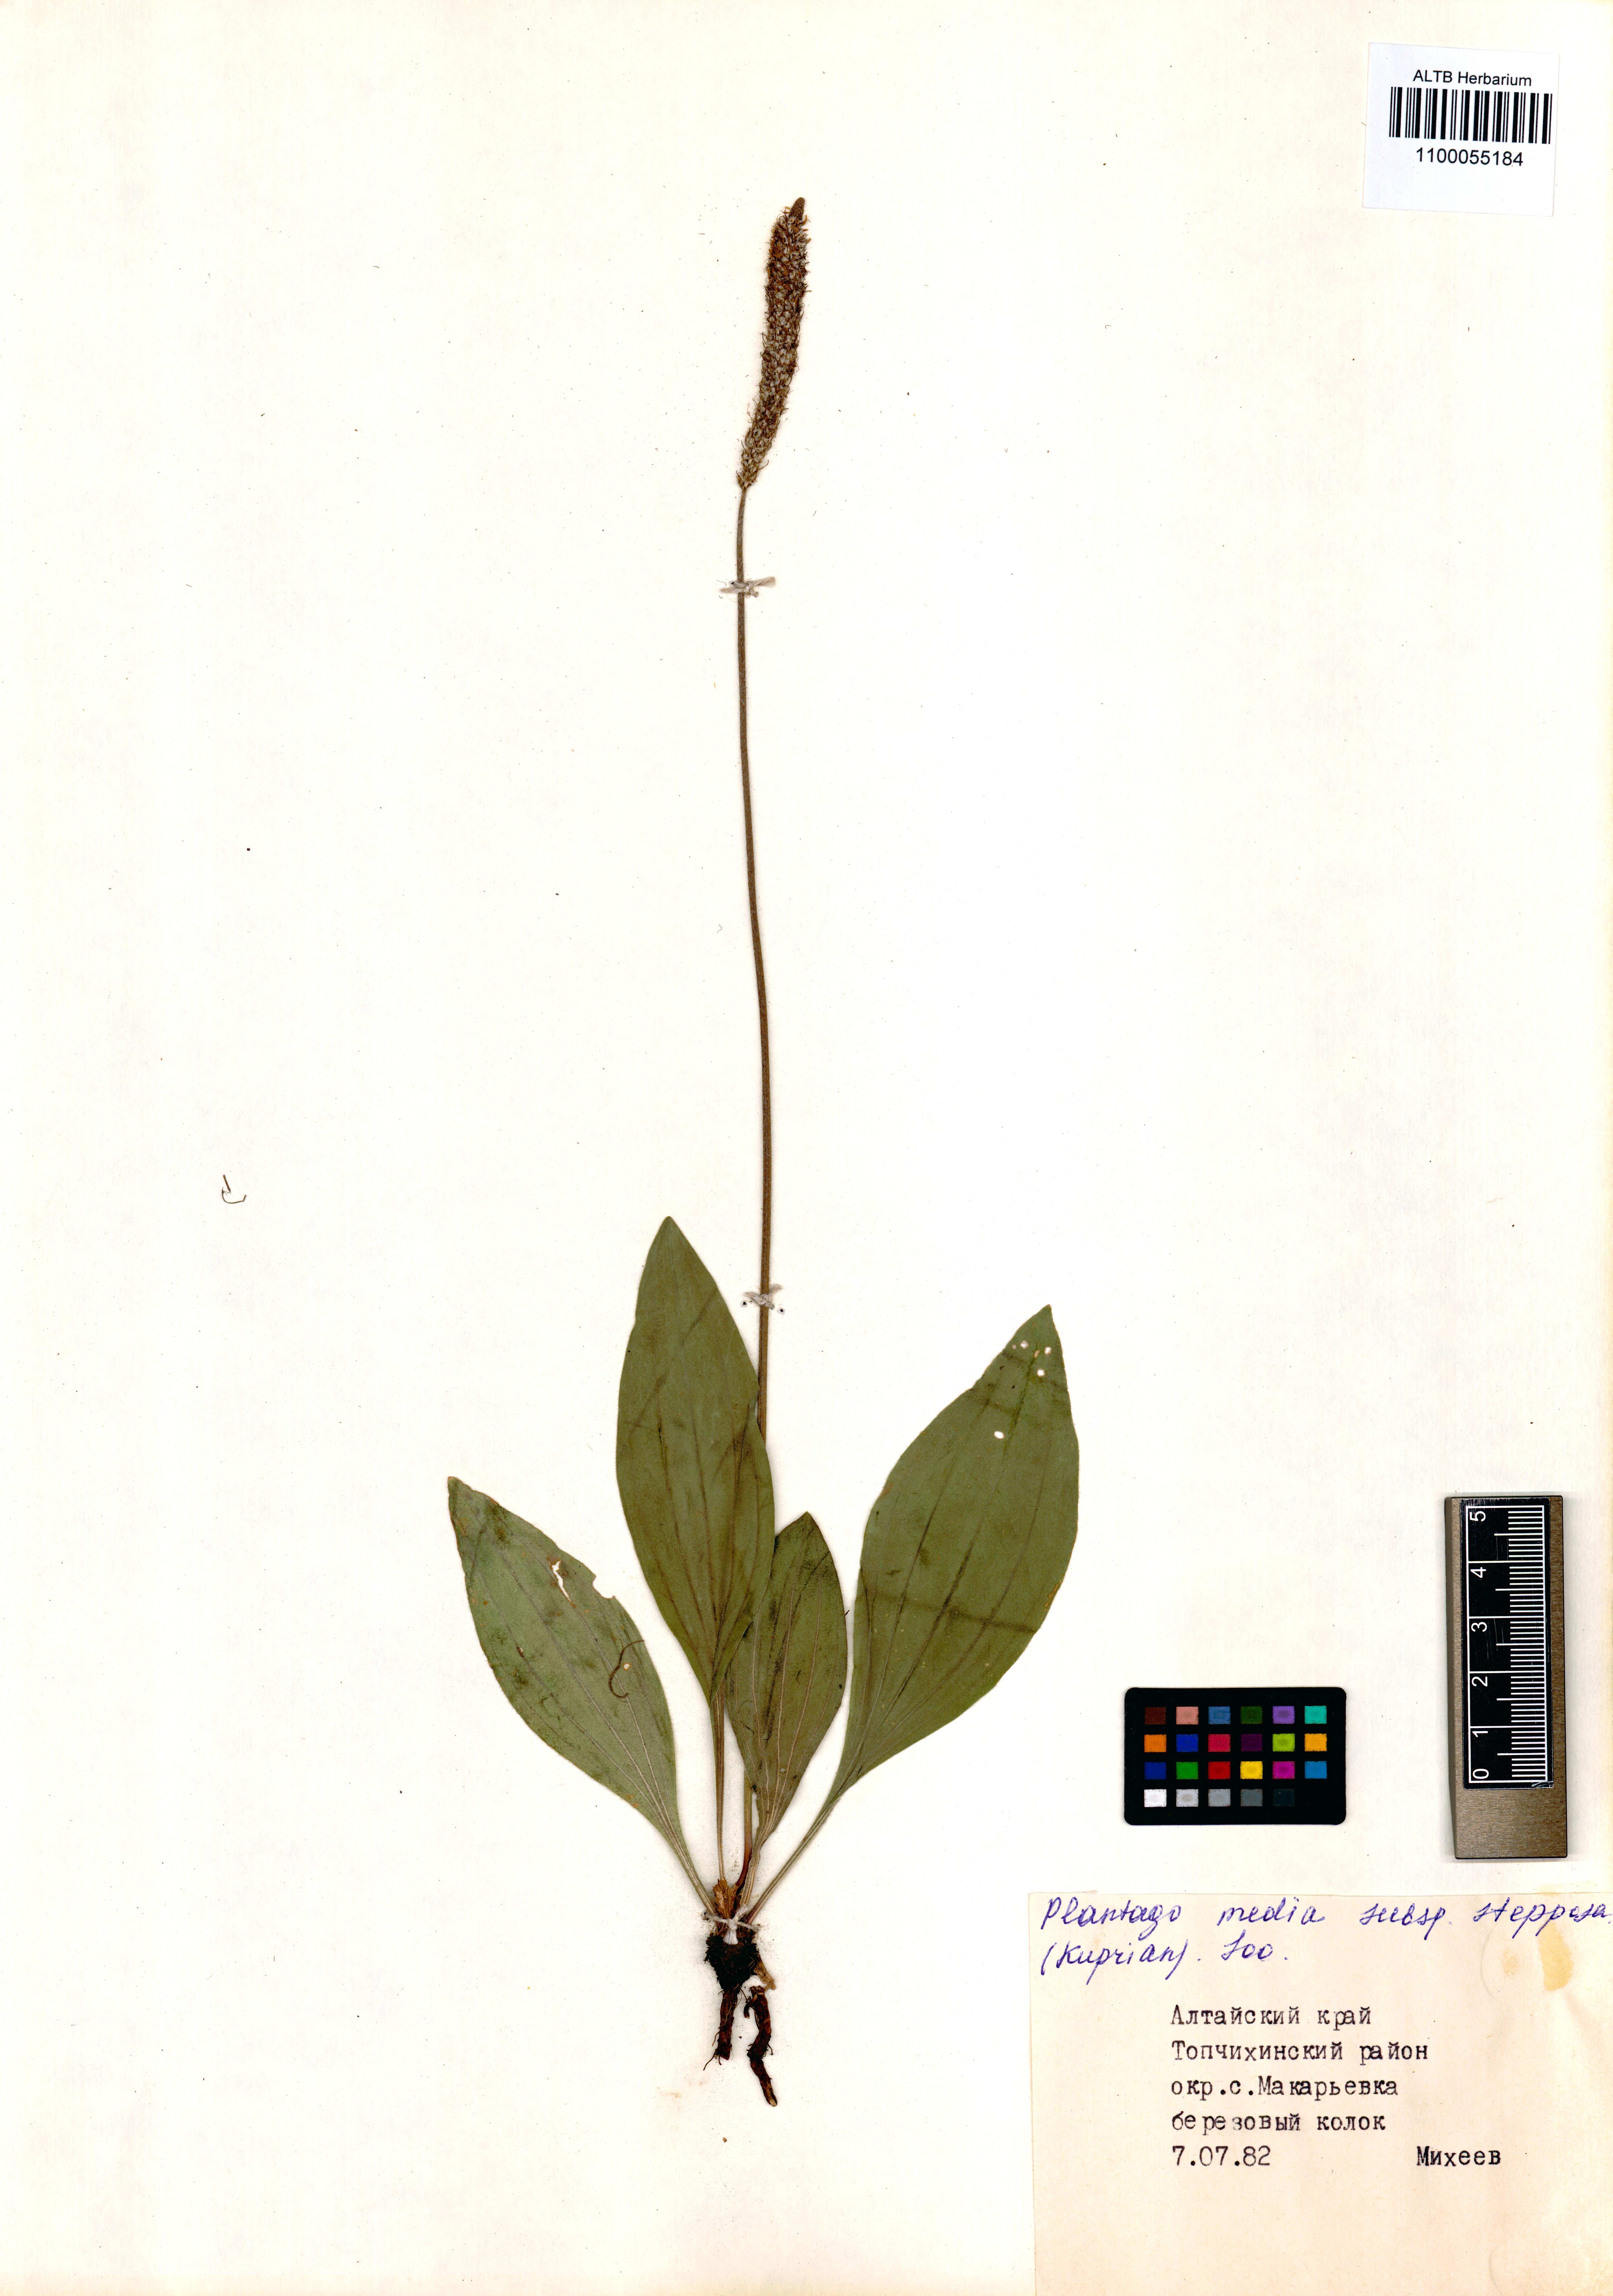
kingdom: Plantae
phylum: Tracheophyta
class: Magnoliopsida
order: Lamiales
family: Plantaginaceae
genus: Plantago
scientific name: Plantago media
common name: Hoary plantain
